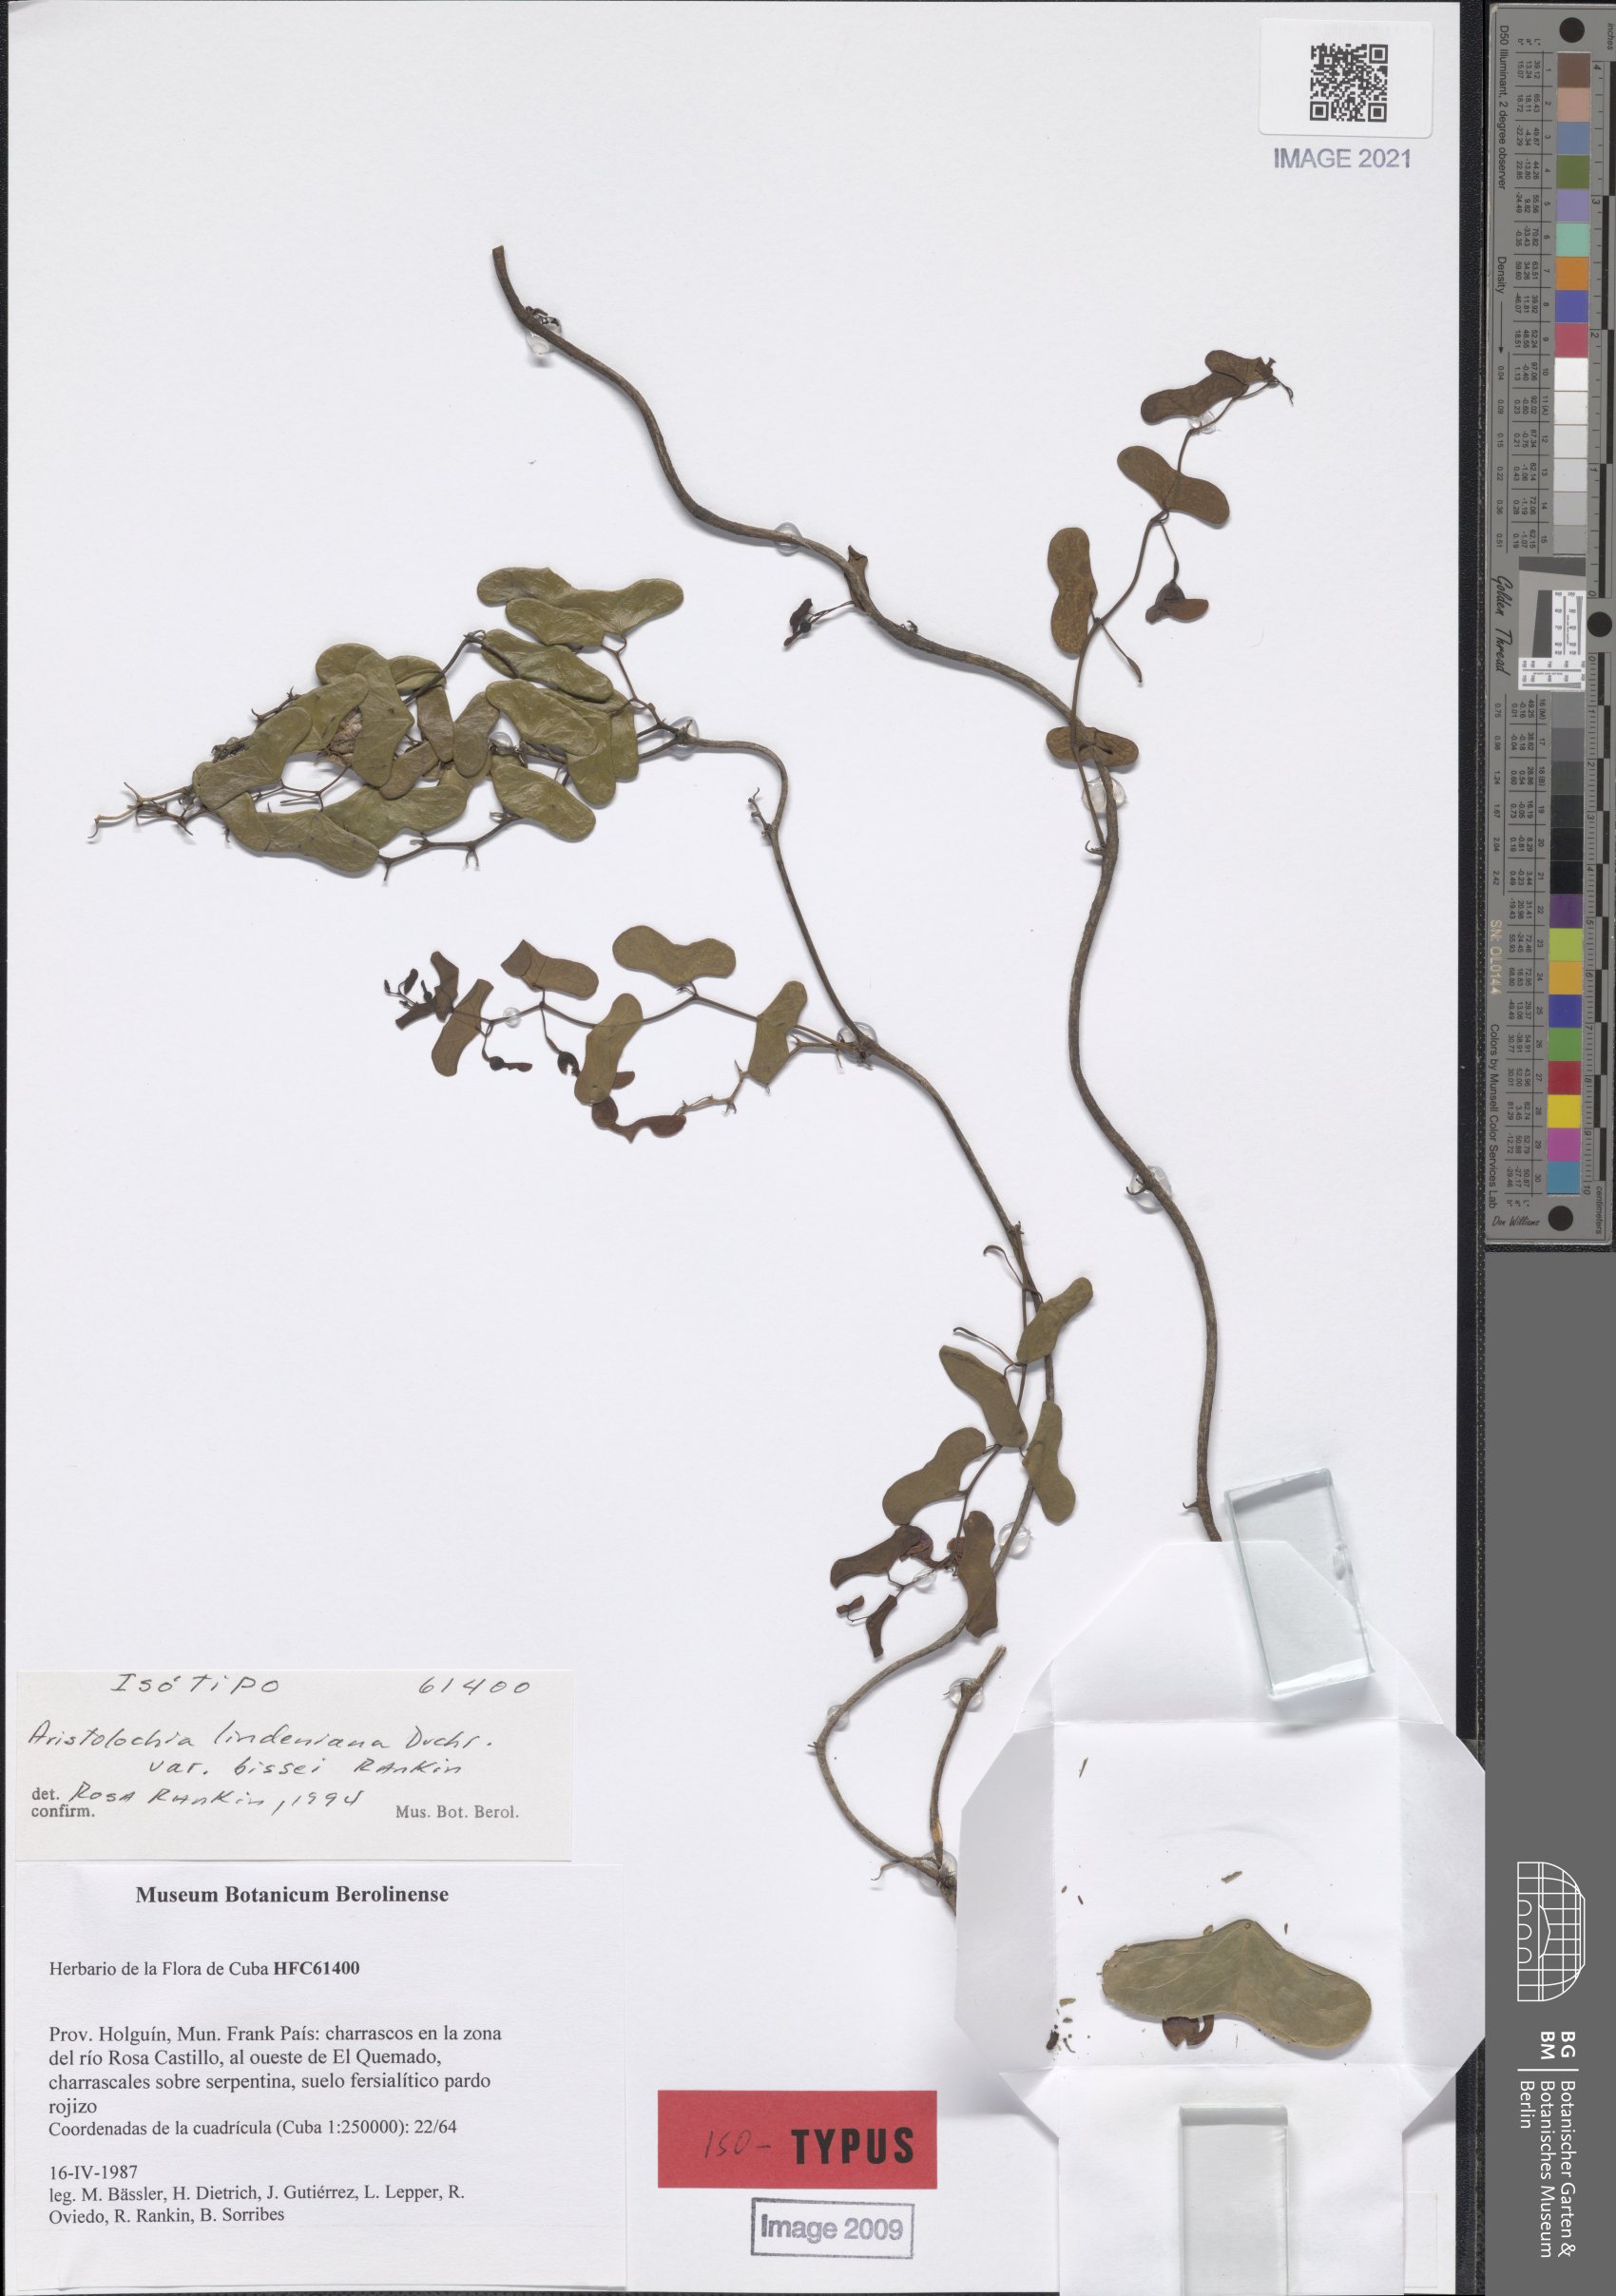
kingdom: Plantae
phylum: Tracheophyta
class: Magnoliopsida
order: Piperales
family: Aristolochiaceae
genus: Aristolochia
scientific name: Aristolochia lindeniana
